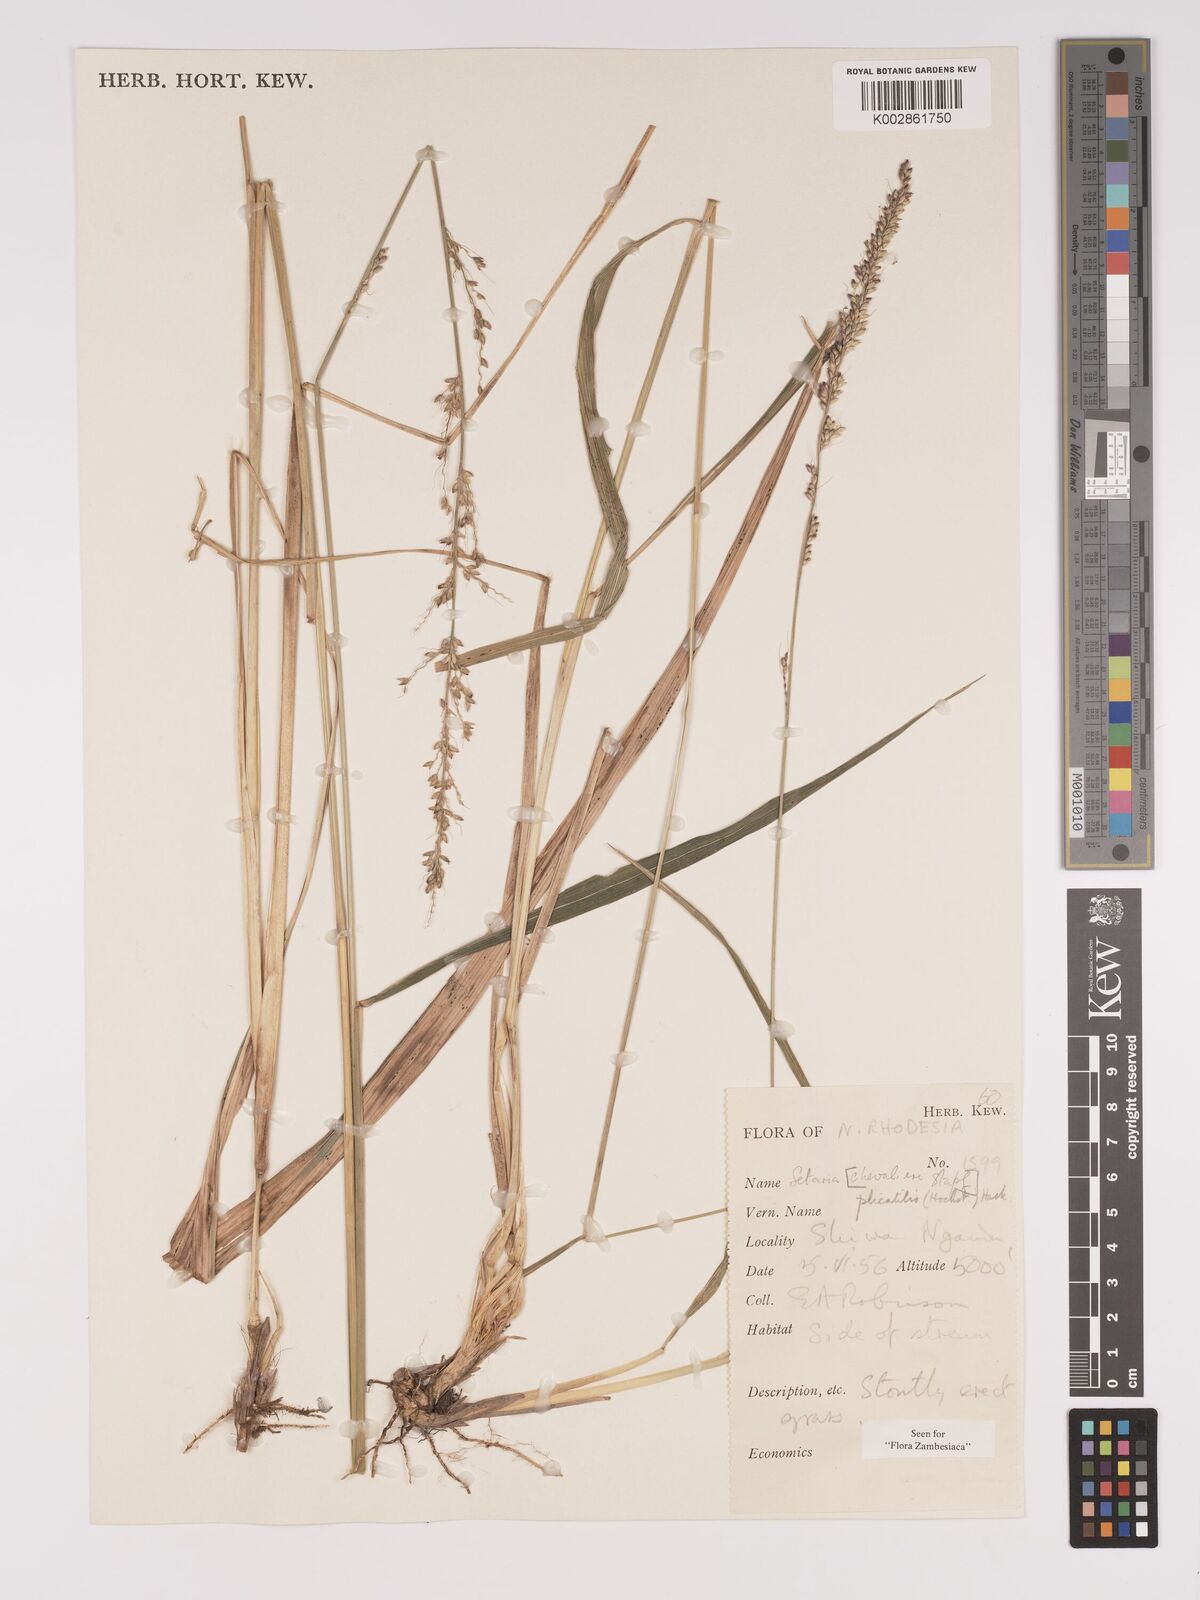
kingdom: Plantae
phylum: Tracheophyta
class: Liliopsida
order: Poales
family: Poaceae
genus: Setaria
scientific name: Setaria megaphylla
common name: Bigleaf bristlegrass
